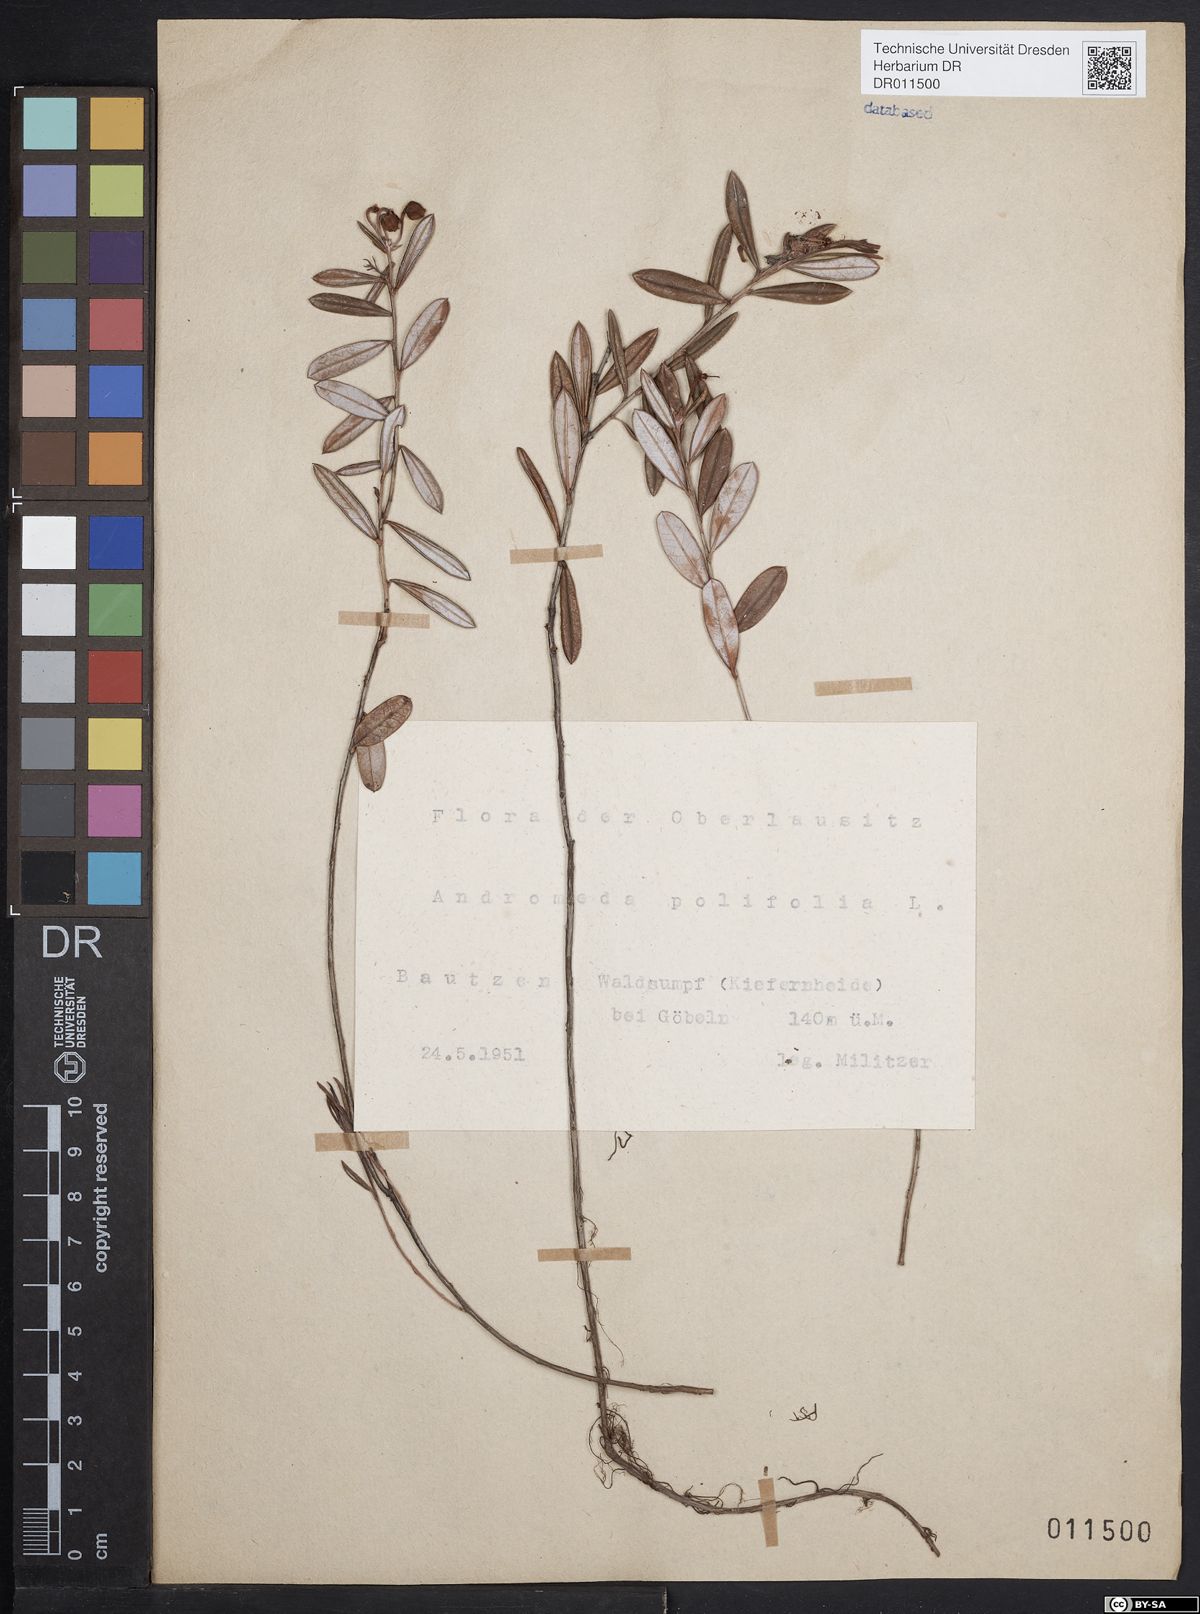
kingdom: Plantae
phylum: Tracheophyta
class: Magnoliopsida
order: Ericales
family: Ericaceae
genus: Andromeda
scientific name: Andromeda polifolia
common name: Bog-rosemary
